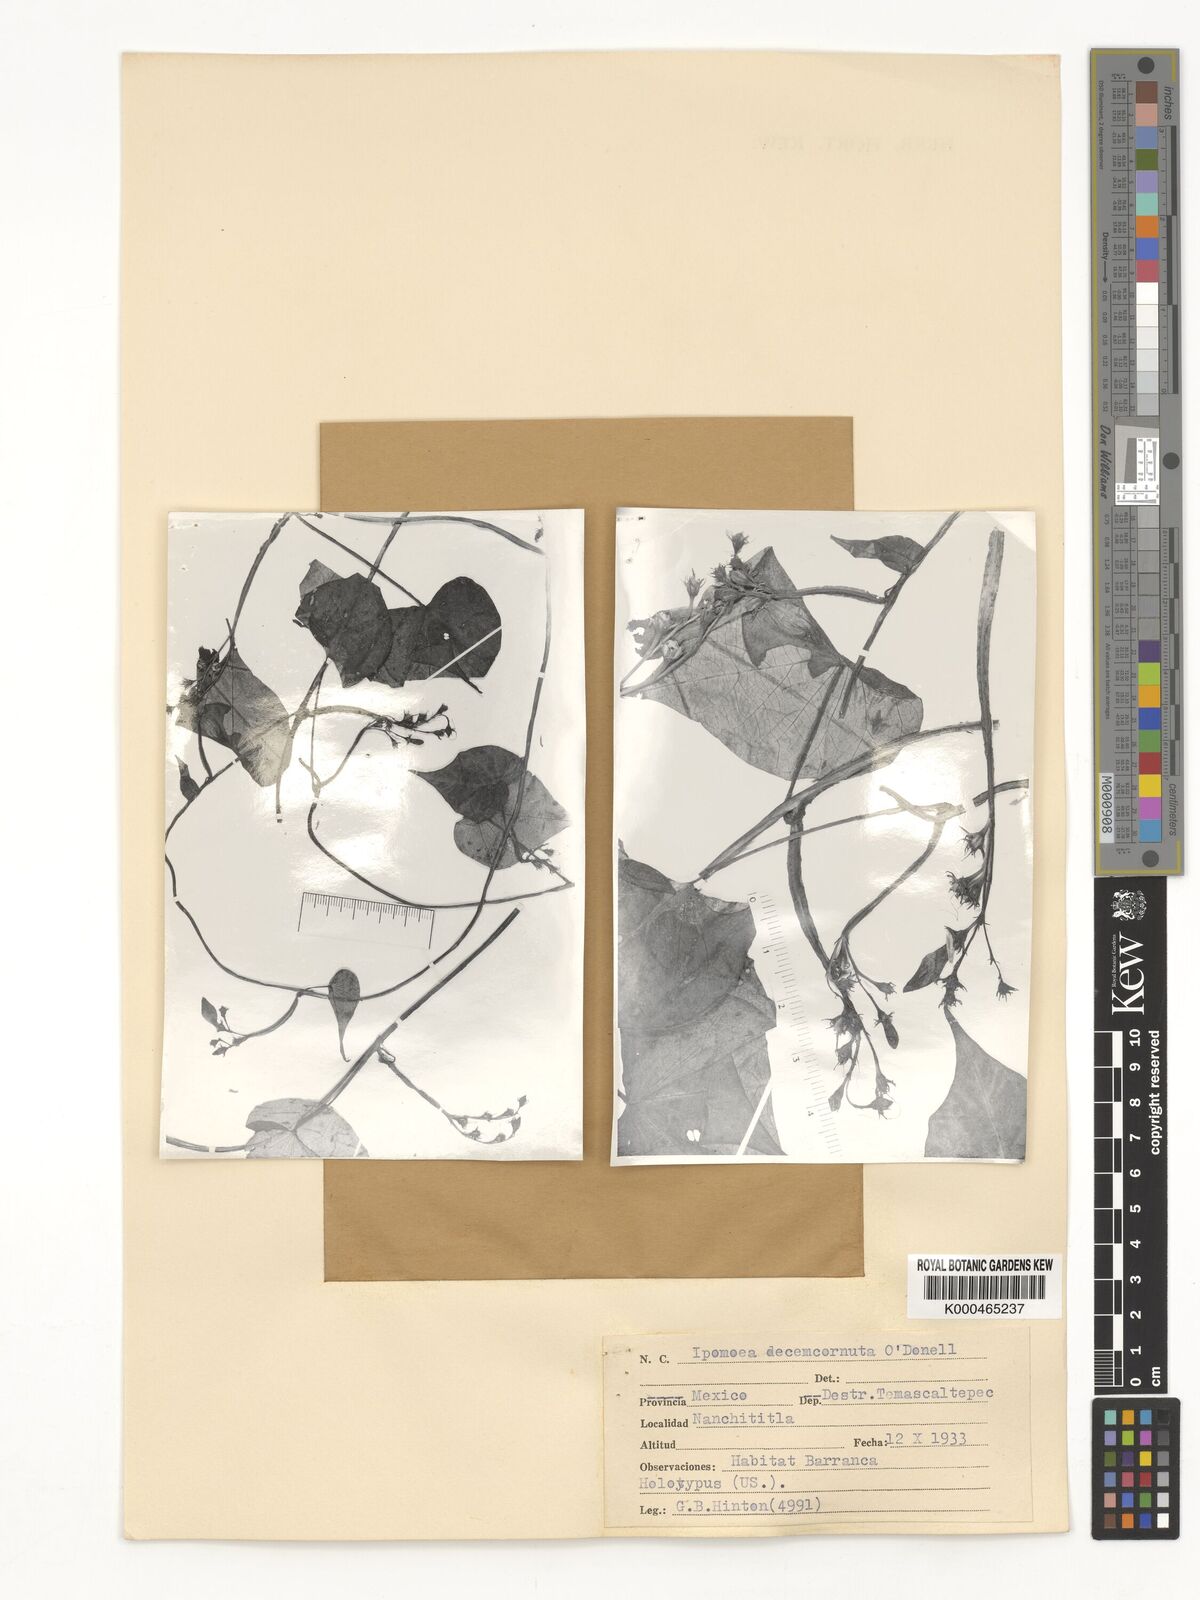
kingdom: Plantae
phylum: Tracheophyta
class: Magnoliopsida
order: Solanales
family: Convolvulaceae
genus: Ipomoea
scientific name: Ipomoea decemcornuta
